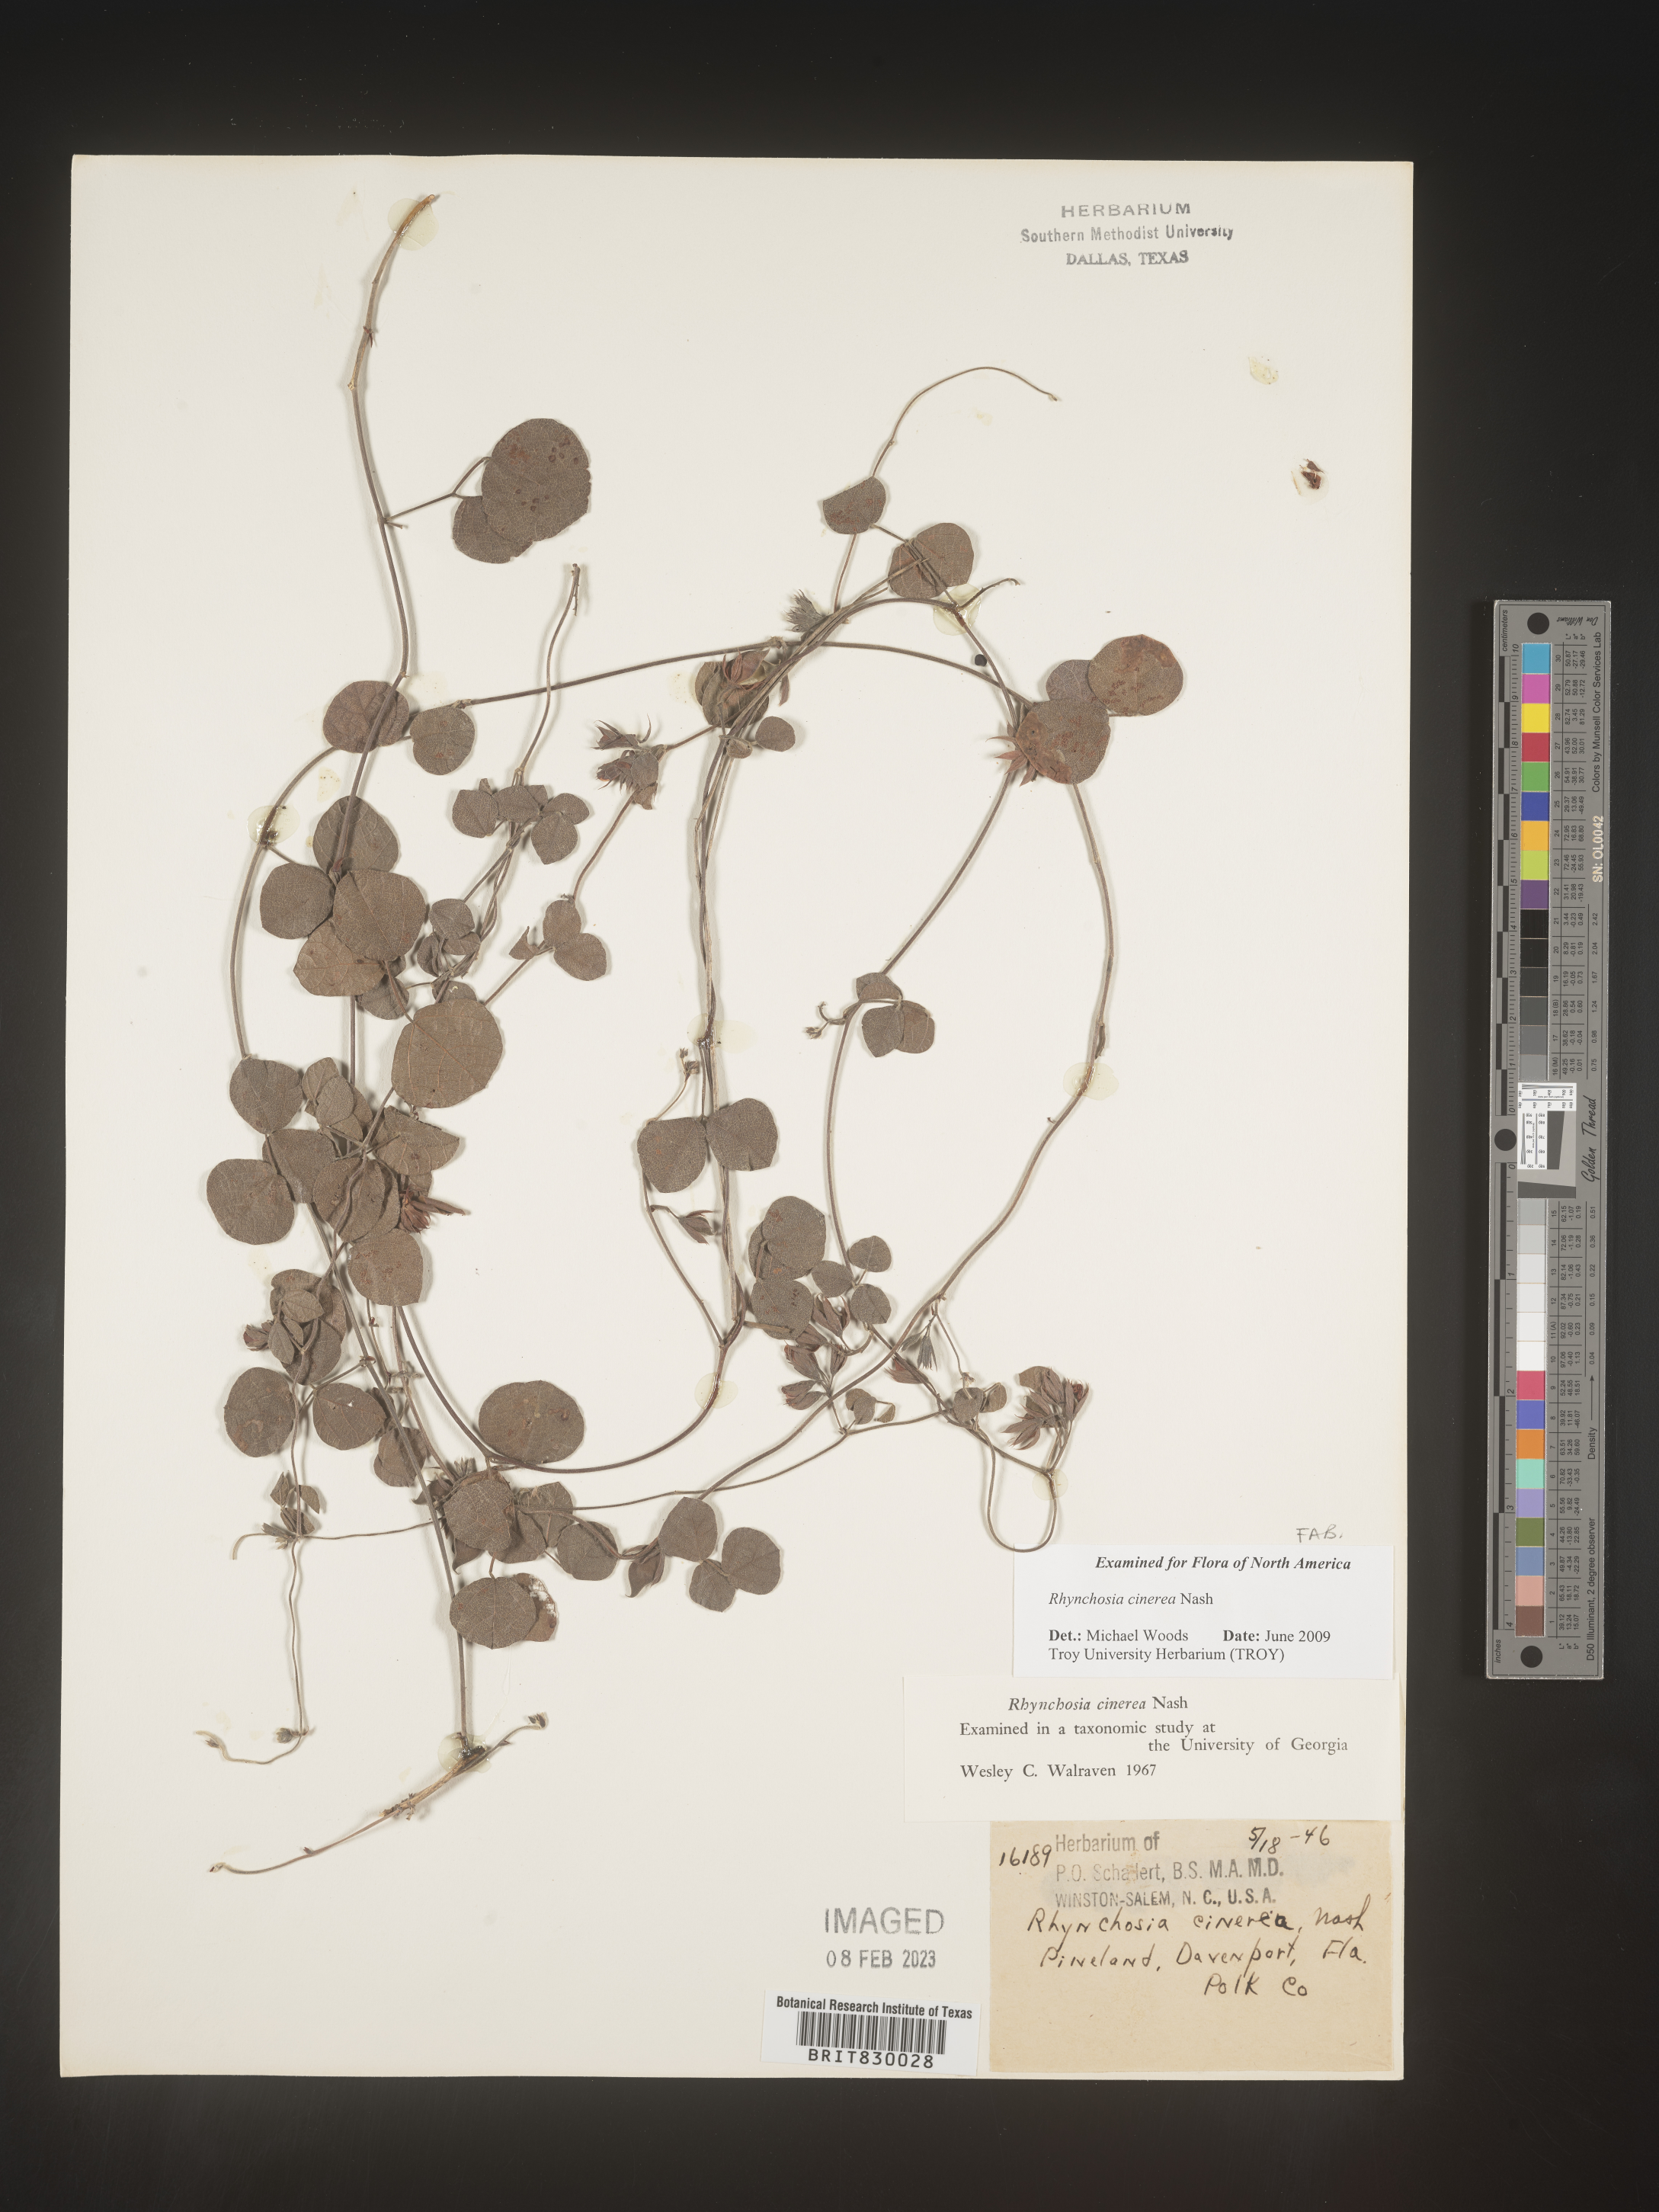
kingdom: Plantae
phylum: Tracheophyta
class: Magnoliopsida
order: Fabales
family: Fabaceae
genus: Rhynchosia
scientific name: Rhynchosia
